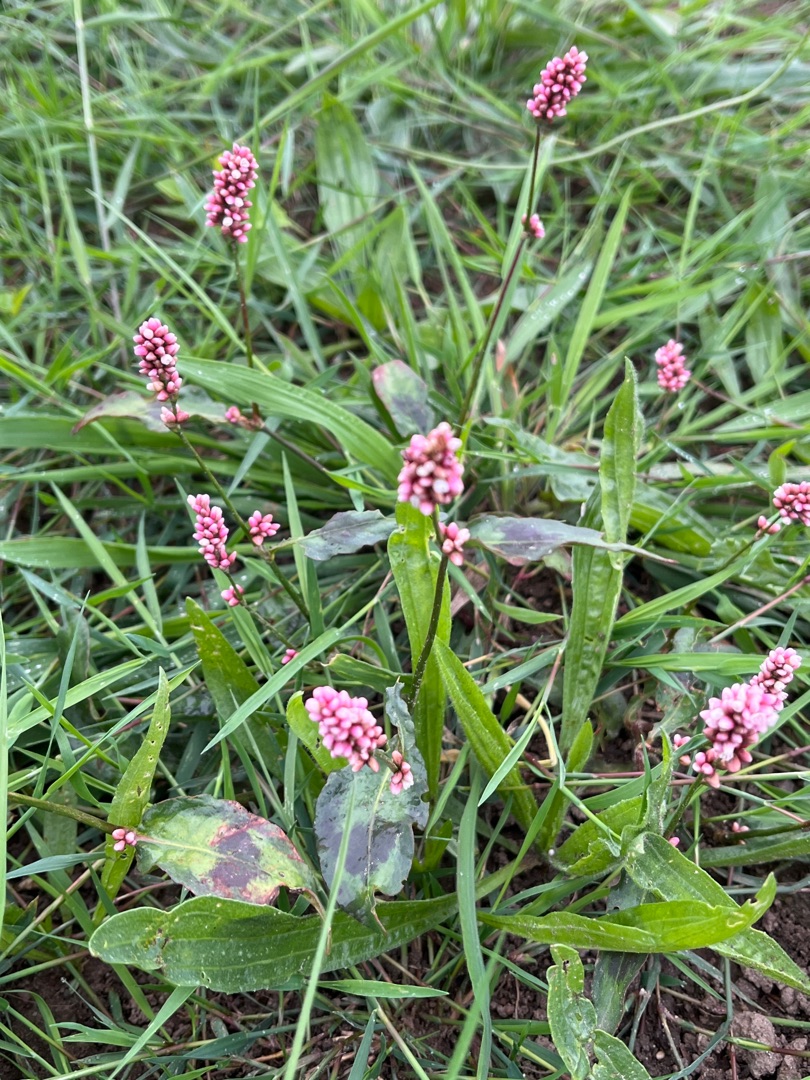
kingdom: Plantae
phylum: Tracheophyta
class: Magnoliopsida
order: Caryophyllales
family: Polygonaceae
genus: Persicaria
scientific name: Persicaria maculosa
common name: Fersken-pileurt
